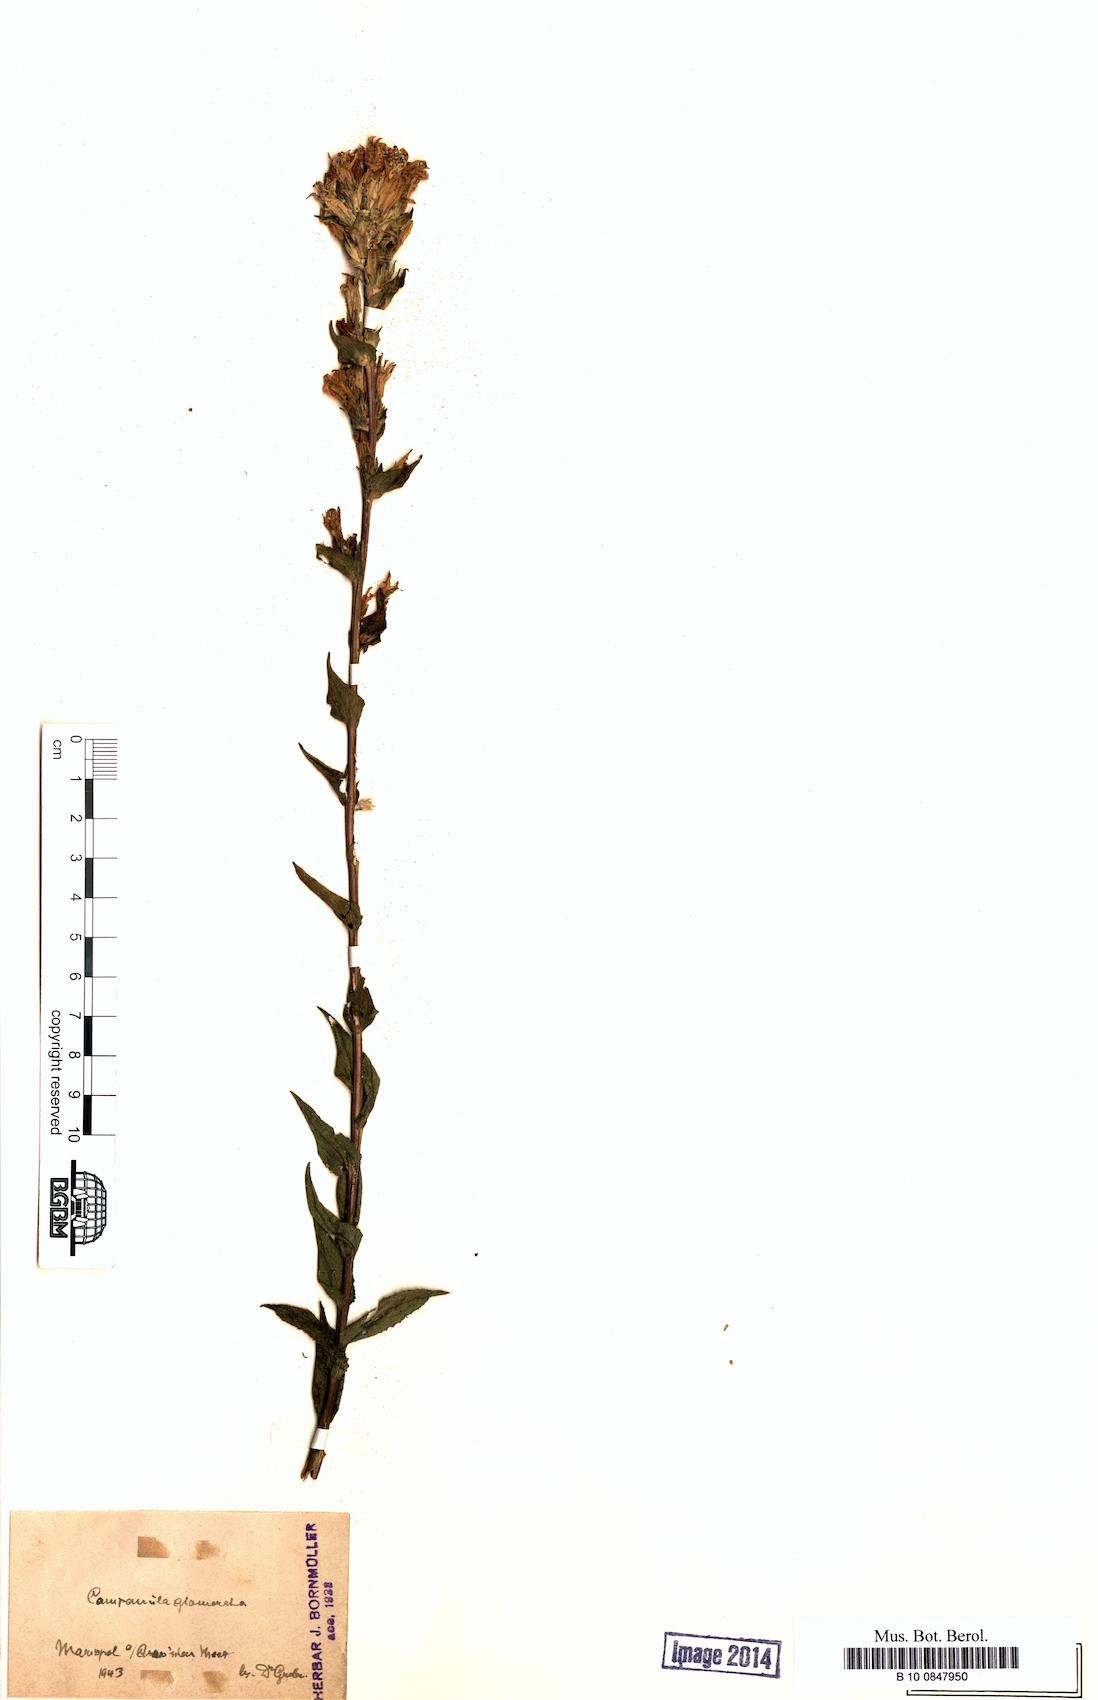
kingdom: Plantae
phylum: Tracheophyta
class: Magnoliopsida
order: Asterales
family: Campanulaceae
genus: Campanula
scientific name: Campanula glomerata
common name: Clustered bellflower
